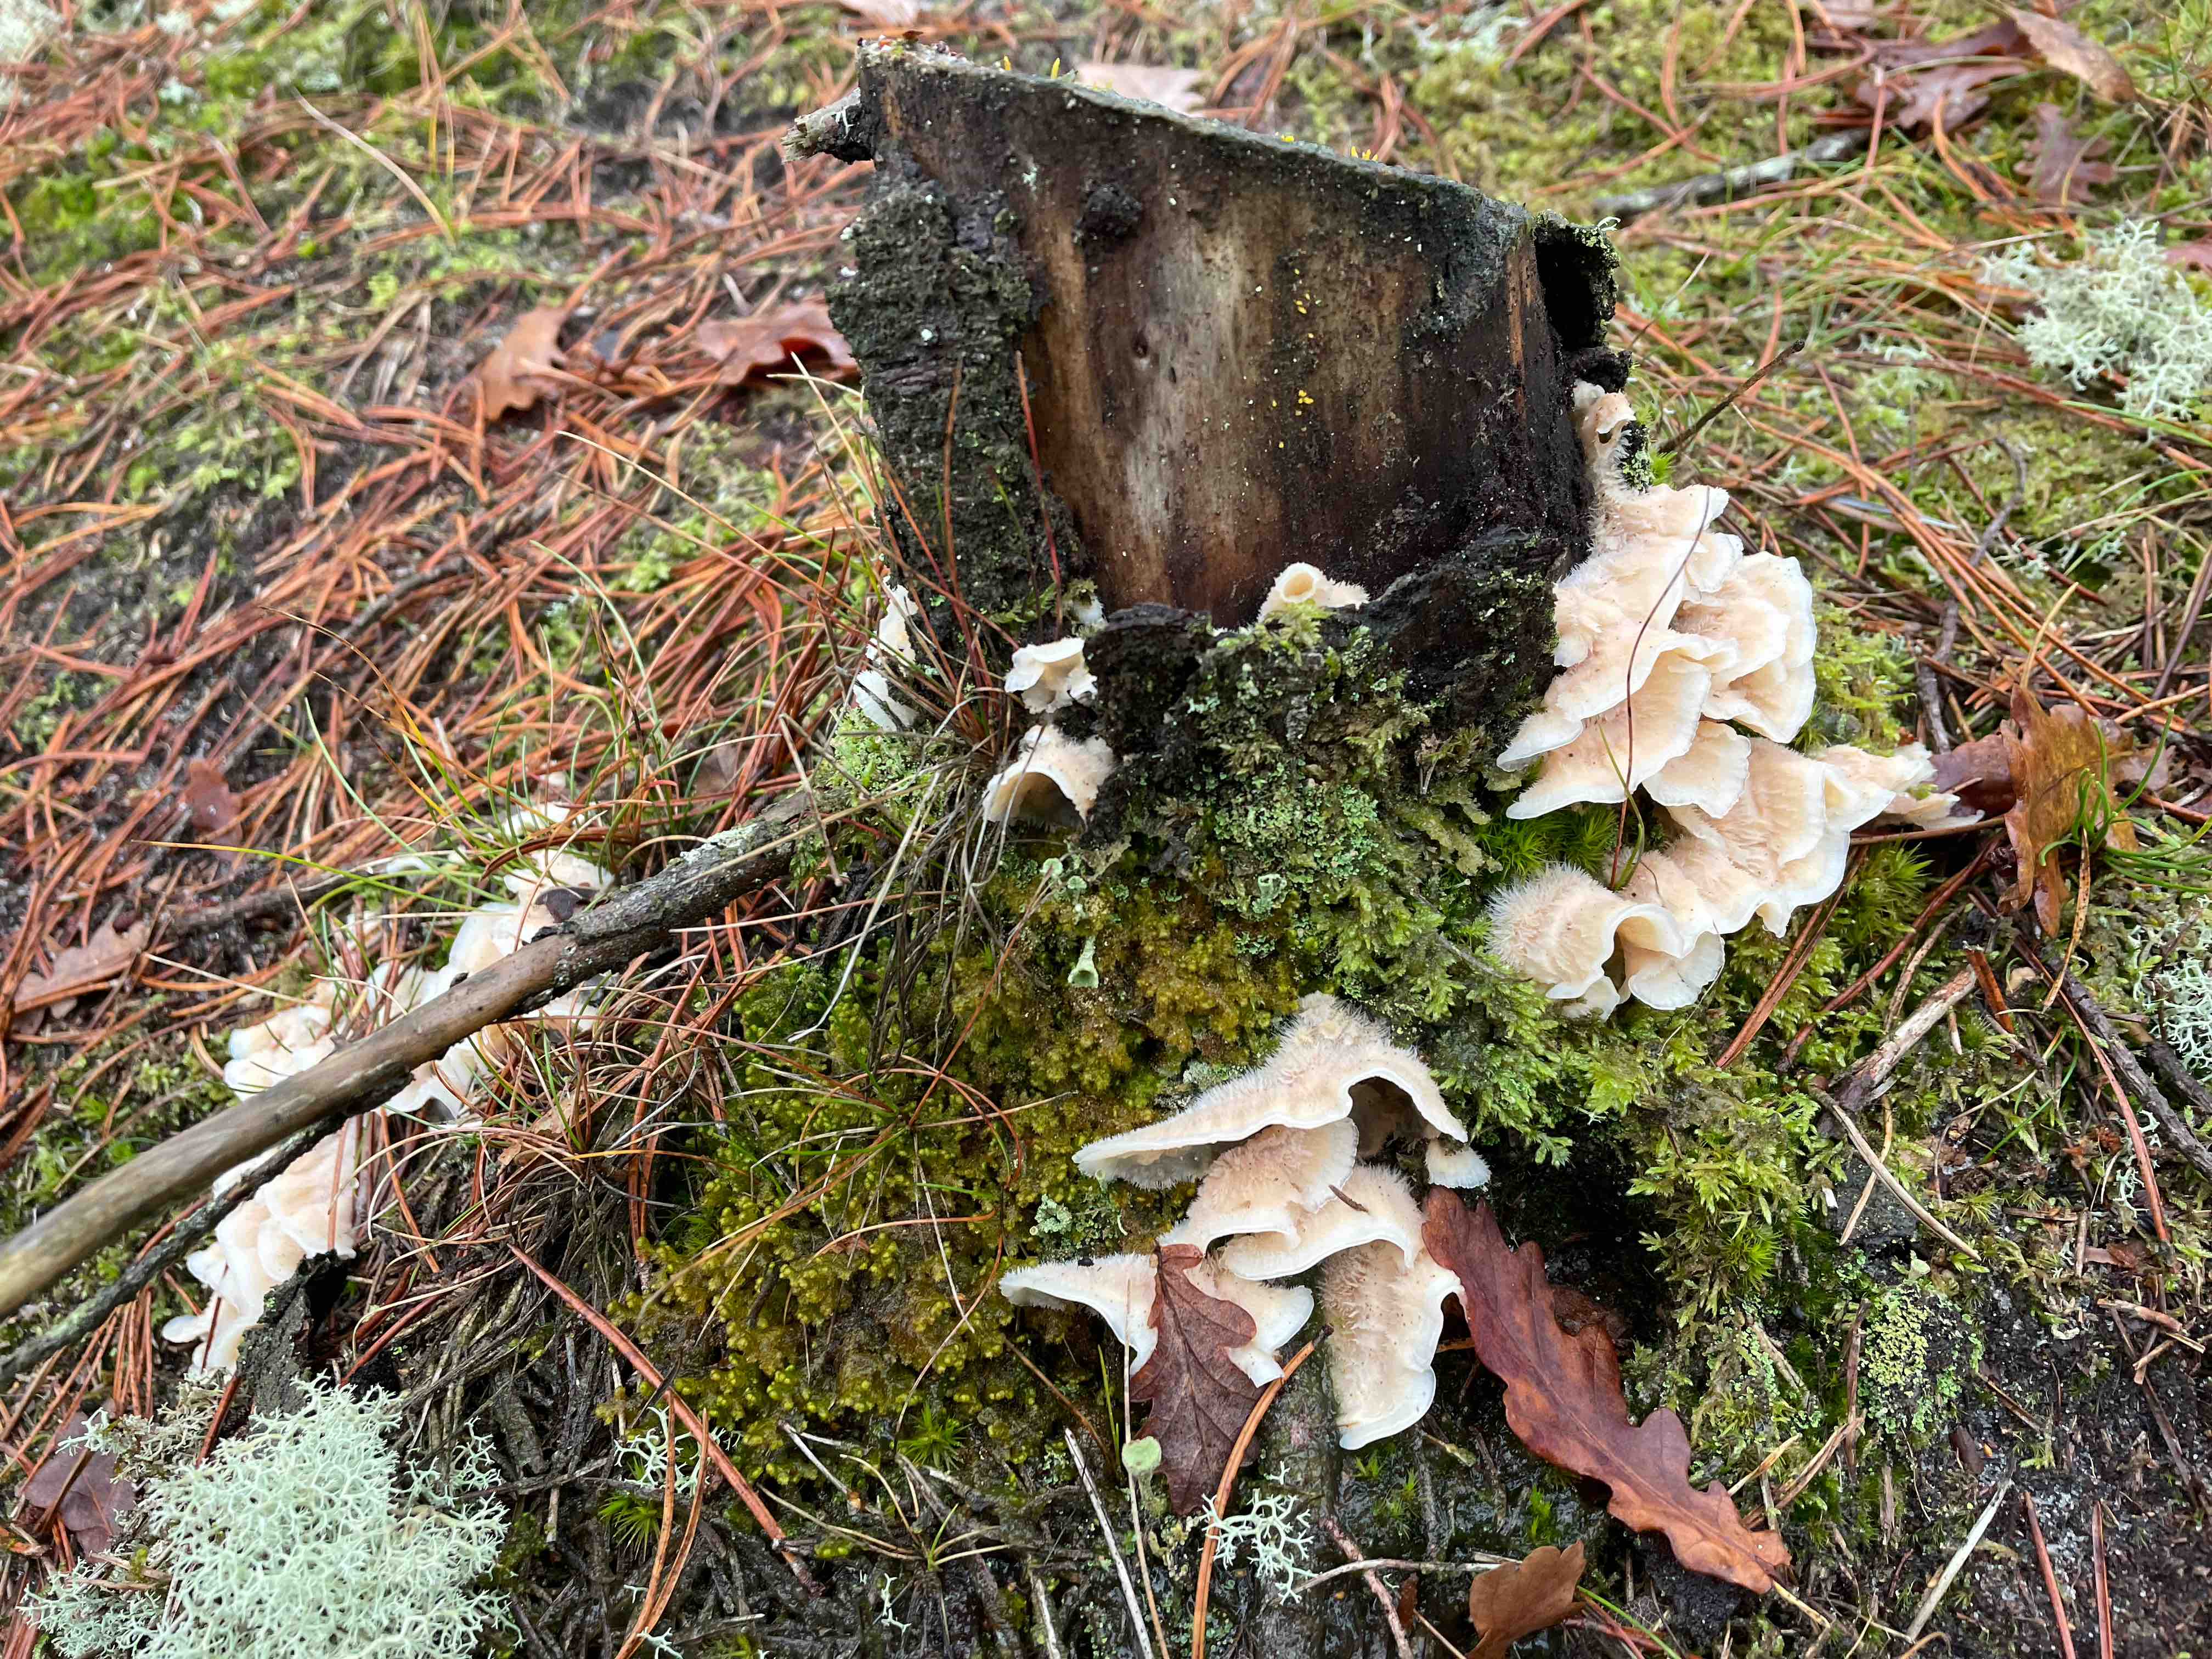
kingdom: Fungi
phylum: Basidiomycota
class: Agaricomycetes
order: Polyporales
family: Meruliaceae
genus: Phlebia
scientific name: Phlebia tremellosa
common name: bævrende åresvamp
